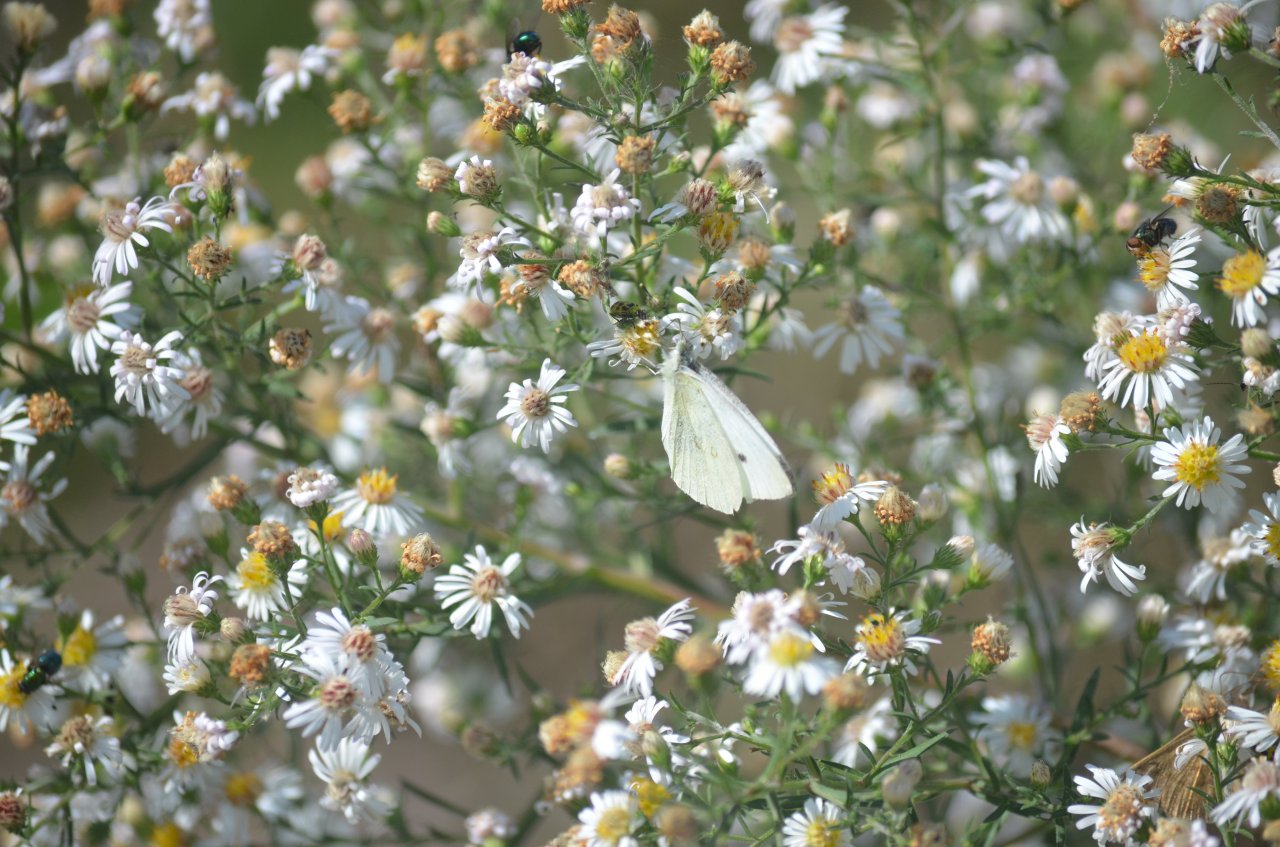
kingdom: Animalia
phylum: Arthropoda
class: Insecta
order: Lepidoptera
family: Pieridae
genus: Pieris
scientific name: Pieris rapae
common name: Cabbage White
